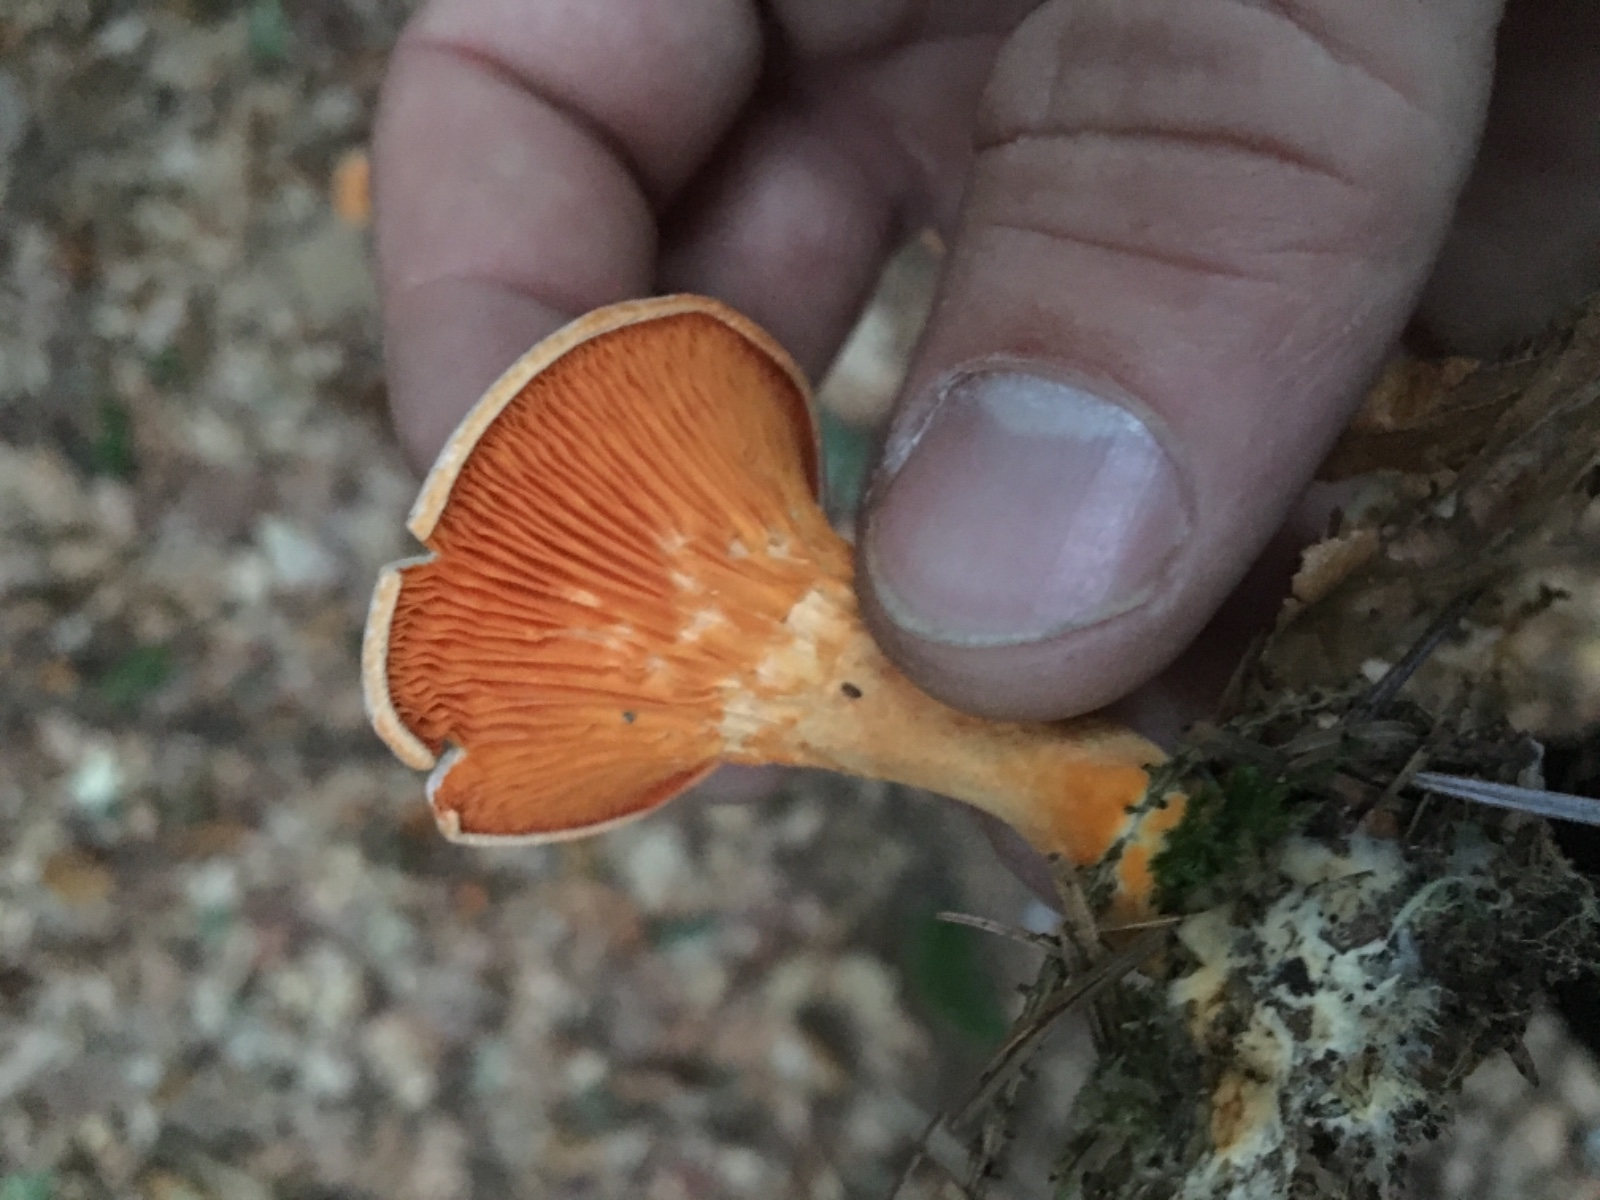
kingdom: Fungi
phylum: Basidiomycota
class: Agaricomycetes
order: Boletales
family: Hygrophoropsidaceae
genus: Hygrophoropsis
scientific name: Hygrophoropsis aurantiaca
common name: almindelig orangekantarel
